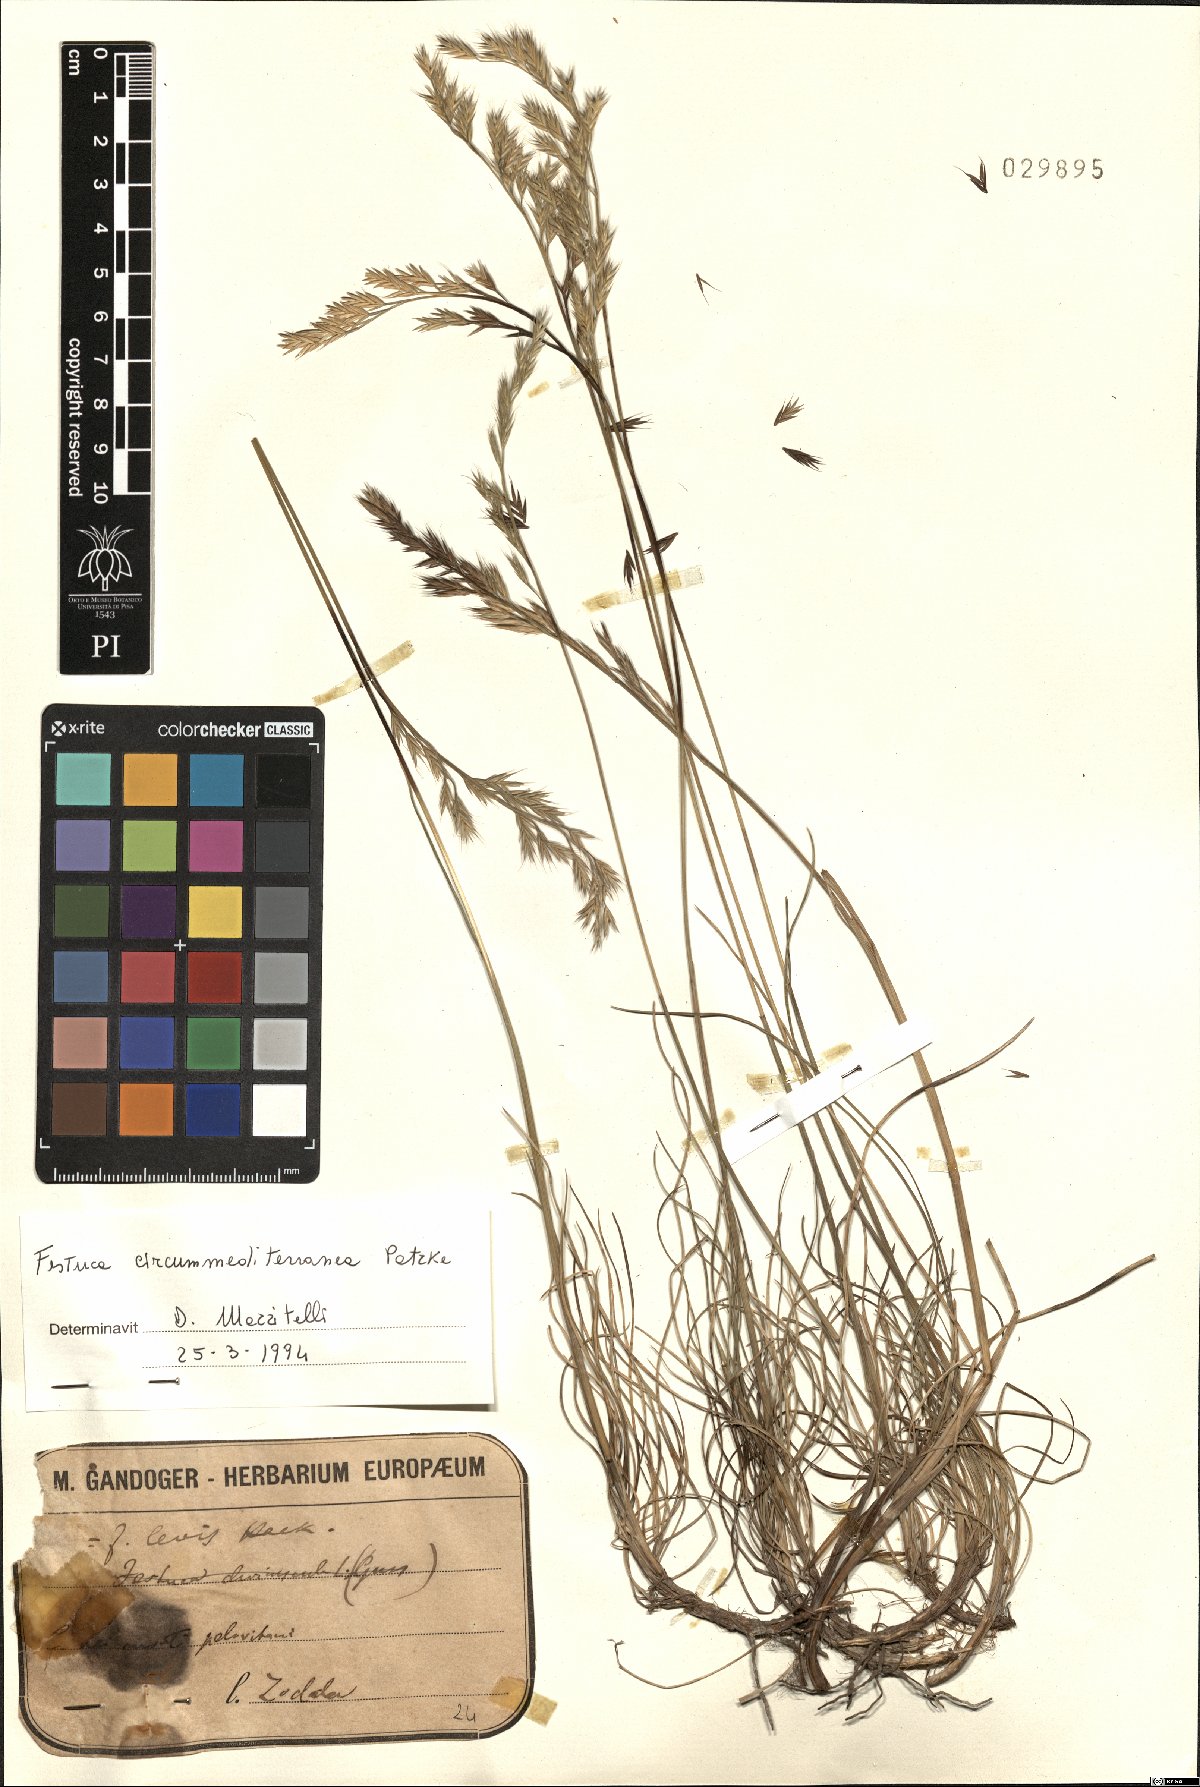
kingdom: Plantae
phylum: Tracheophyta
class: Liliopsida
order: Poales
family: Poaceae
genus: Festuca
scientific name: Festuca circummediterranea
